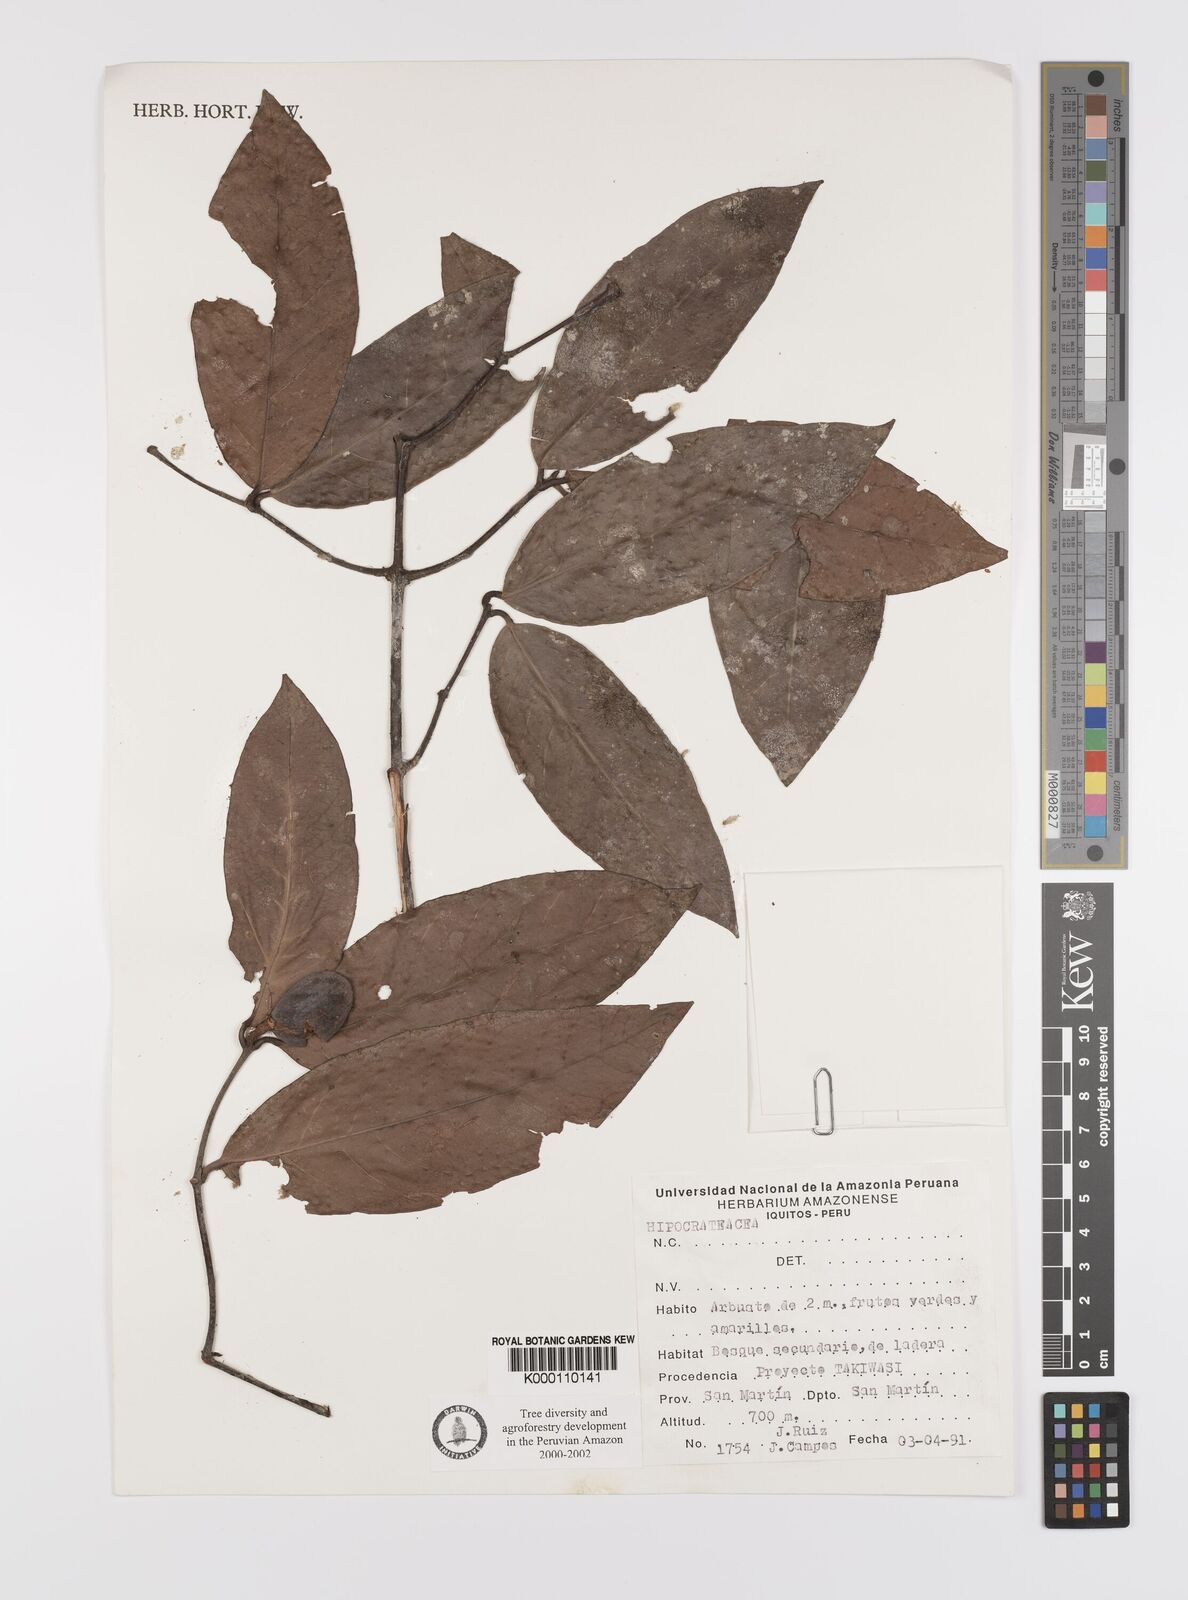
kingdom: Plantae
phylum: Tracheophyta
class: Magnoliopsida
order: Celastrales
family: Celastraceae
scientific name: Celastraceae
